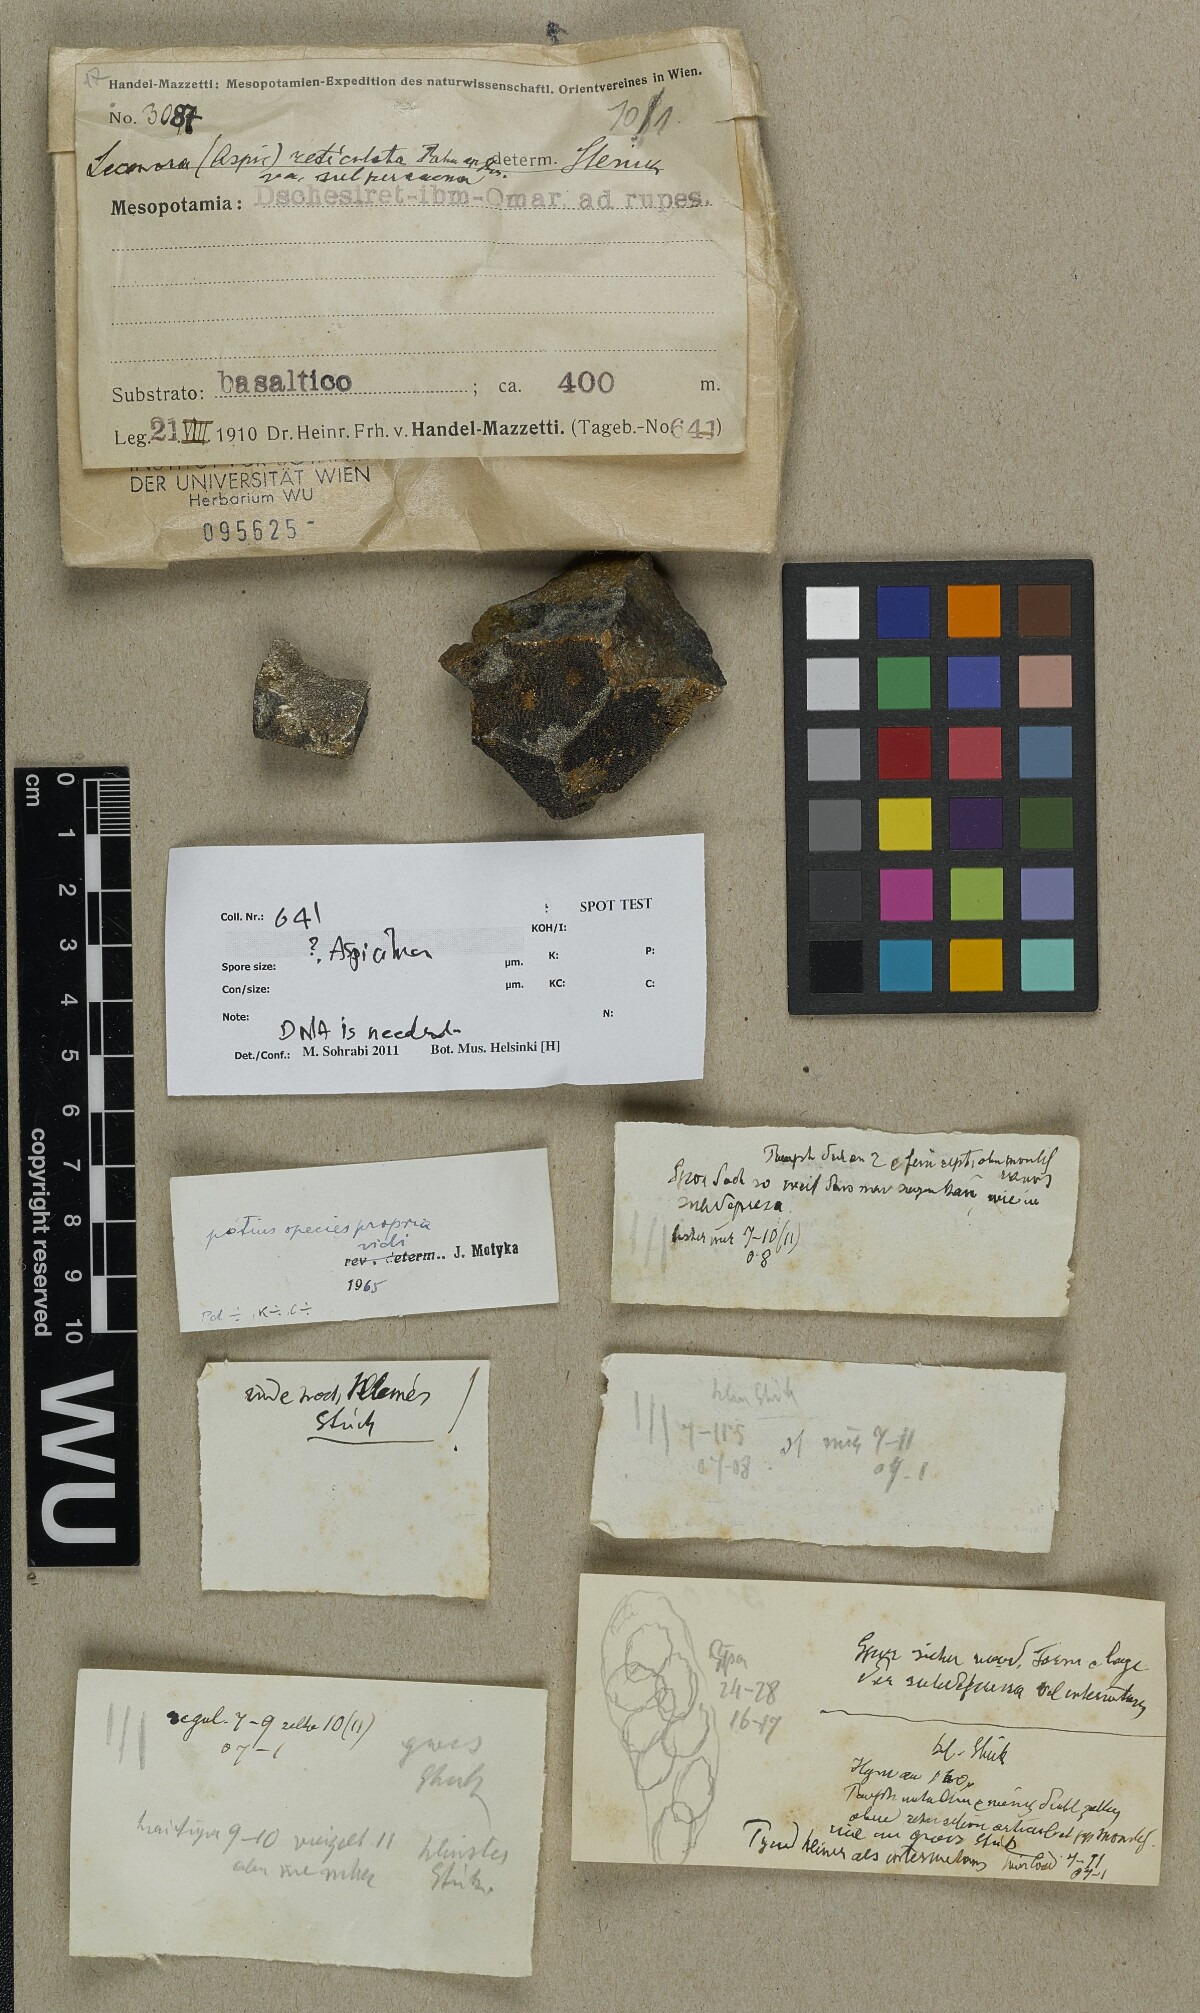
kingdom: Fungi
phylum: Ascomycota
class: Lecanoromycetes
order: Hymeneliales
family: Hymeneliaceae
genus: Aspicilia
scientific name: Aspicilia
